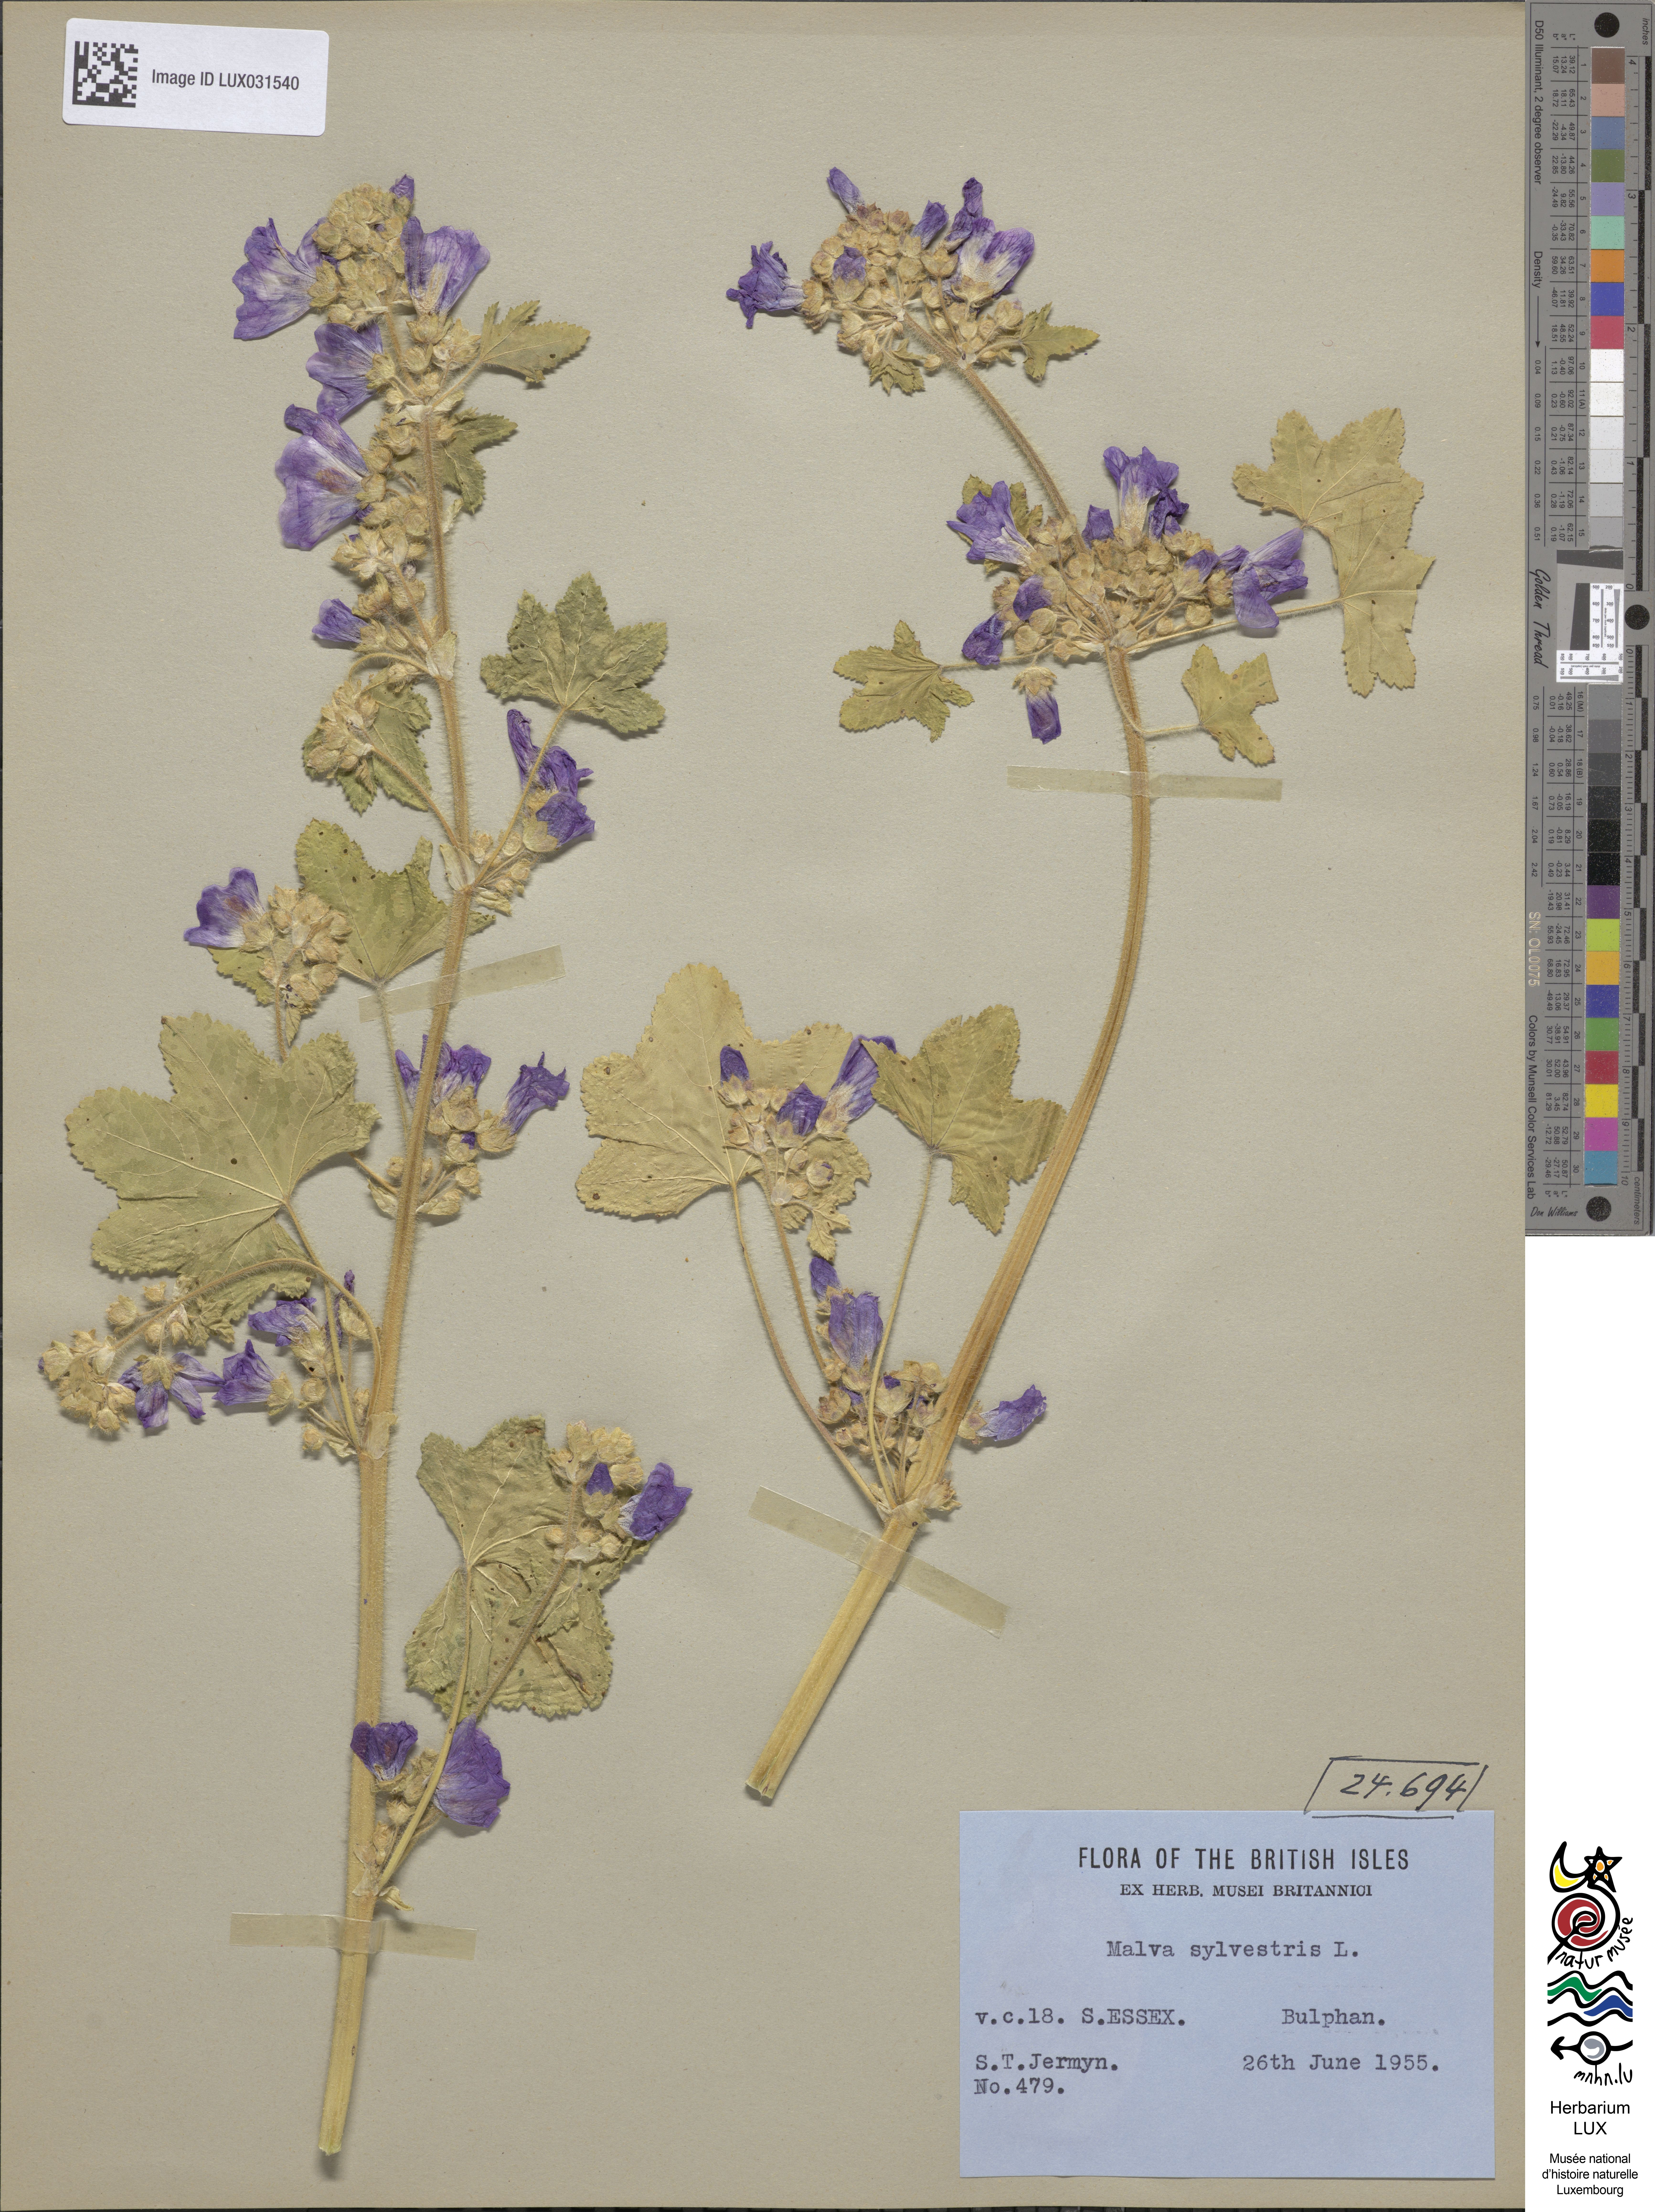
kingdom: Plantae
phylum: Tracheophyta
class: Magnoliopsida
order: Malvales
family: Malvaceae
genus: Malva
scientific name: Malva sylvestris
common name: Common mallow
